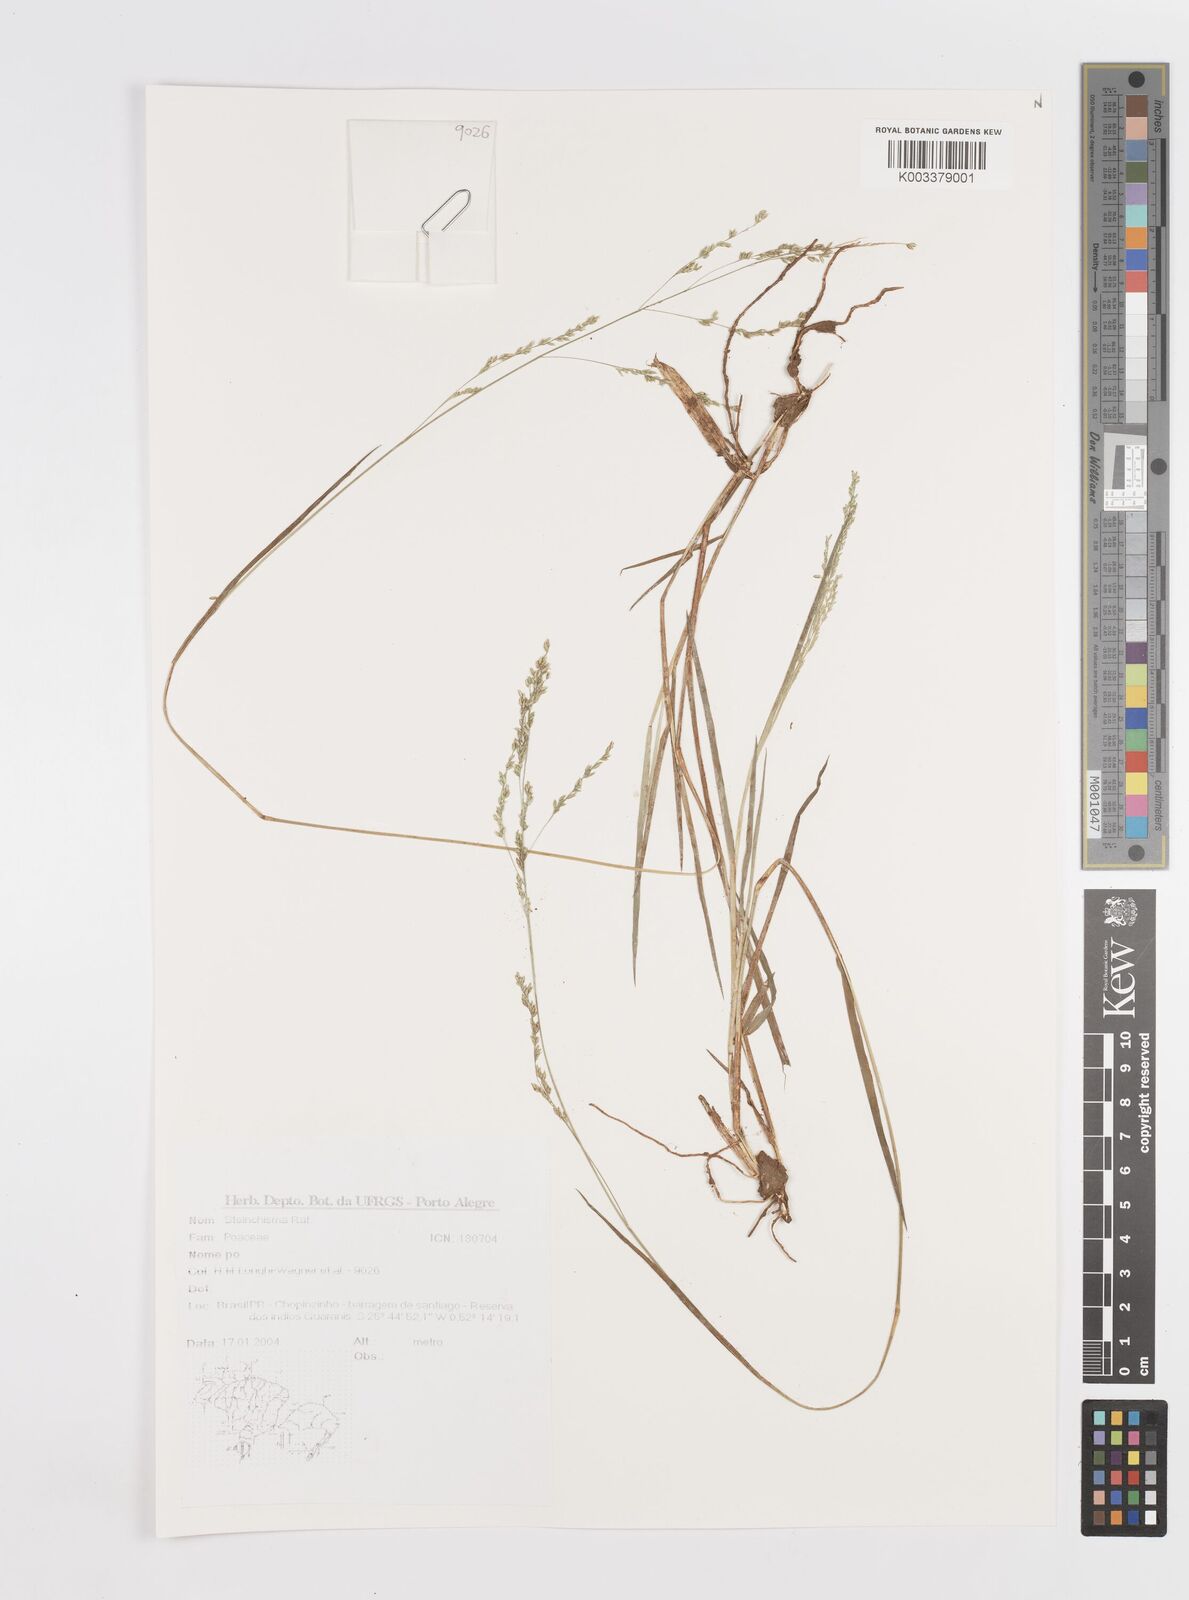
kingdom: Plantae
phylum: Tracheophyta
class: Liliopsida
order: Poales
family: Poaceae
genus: Steinchisma
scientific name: Steinchisma
